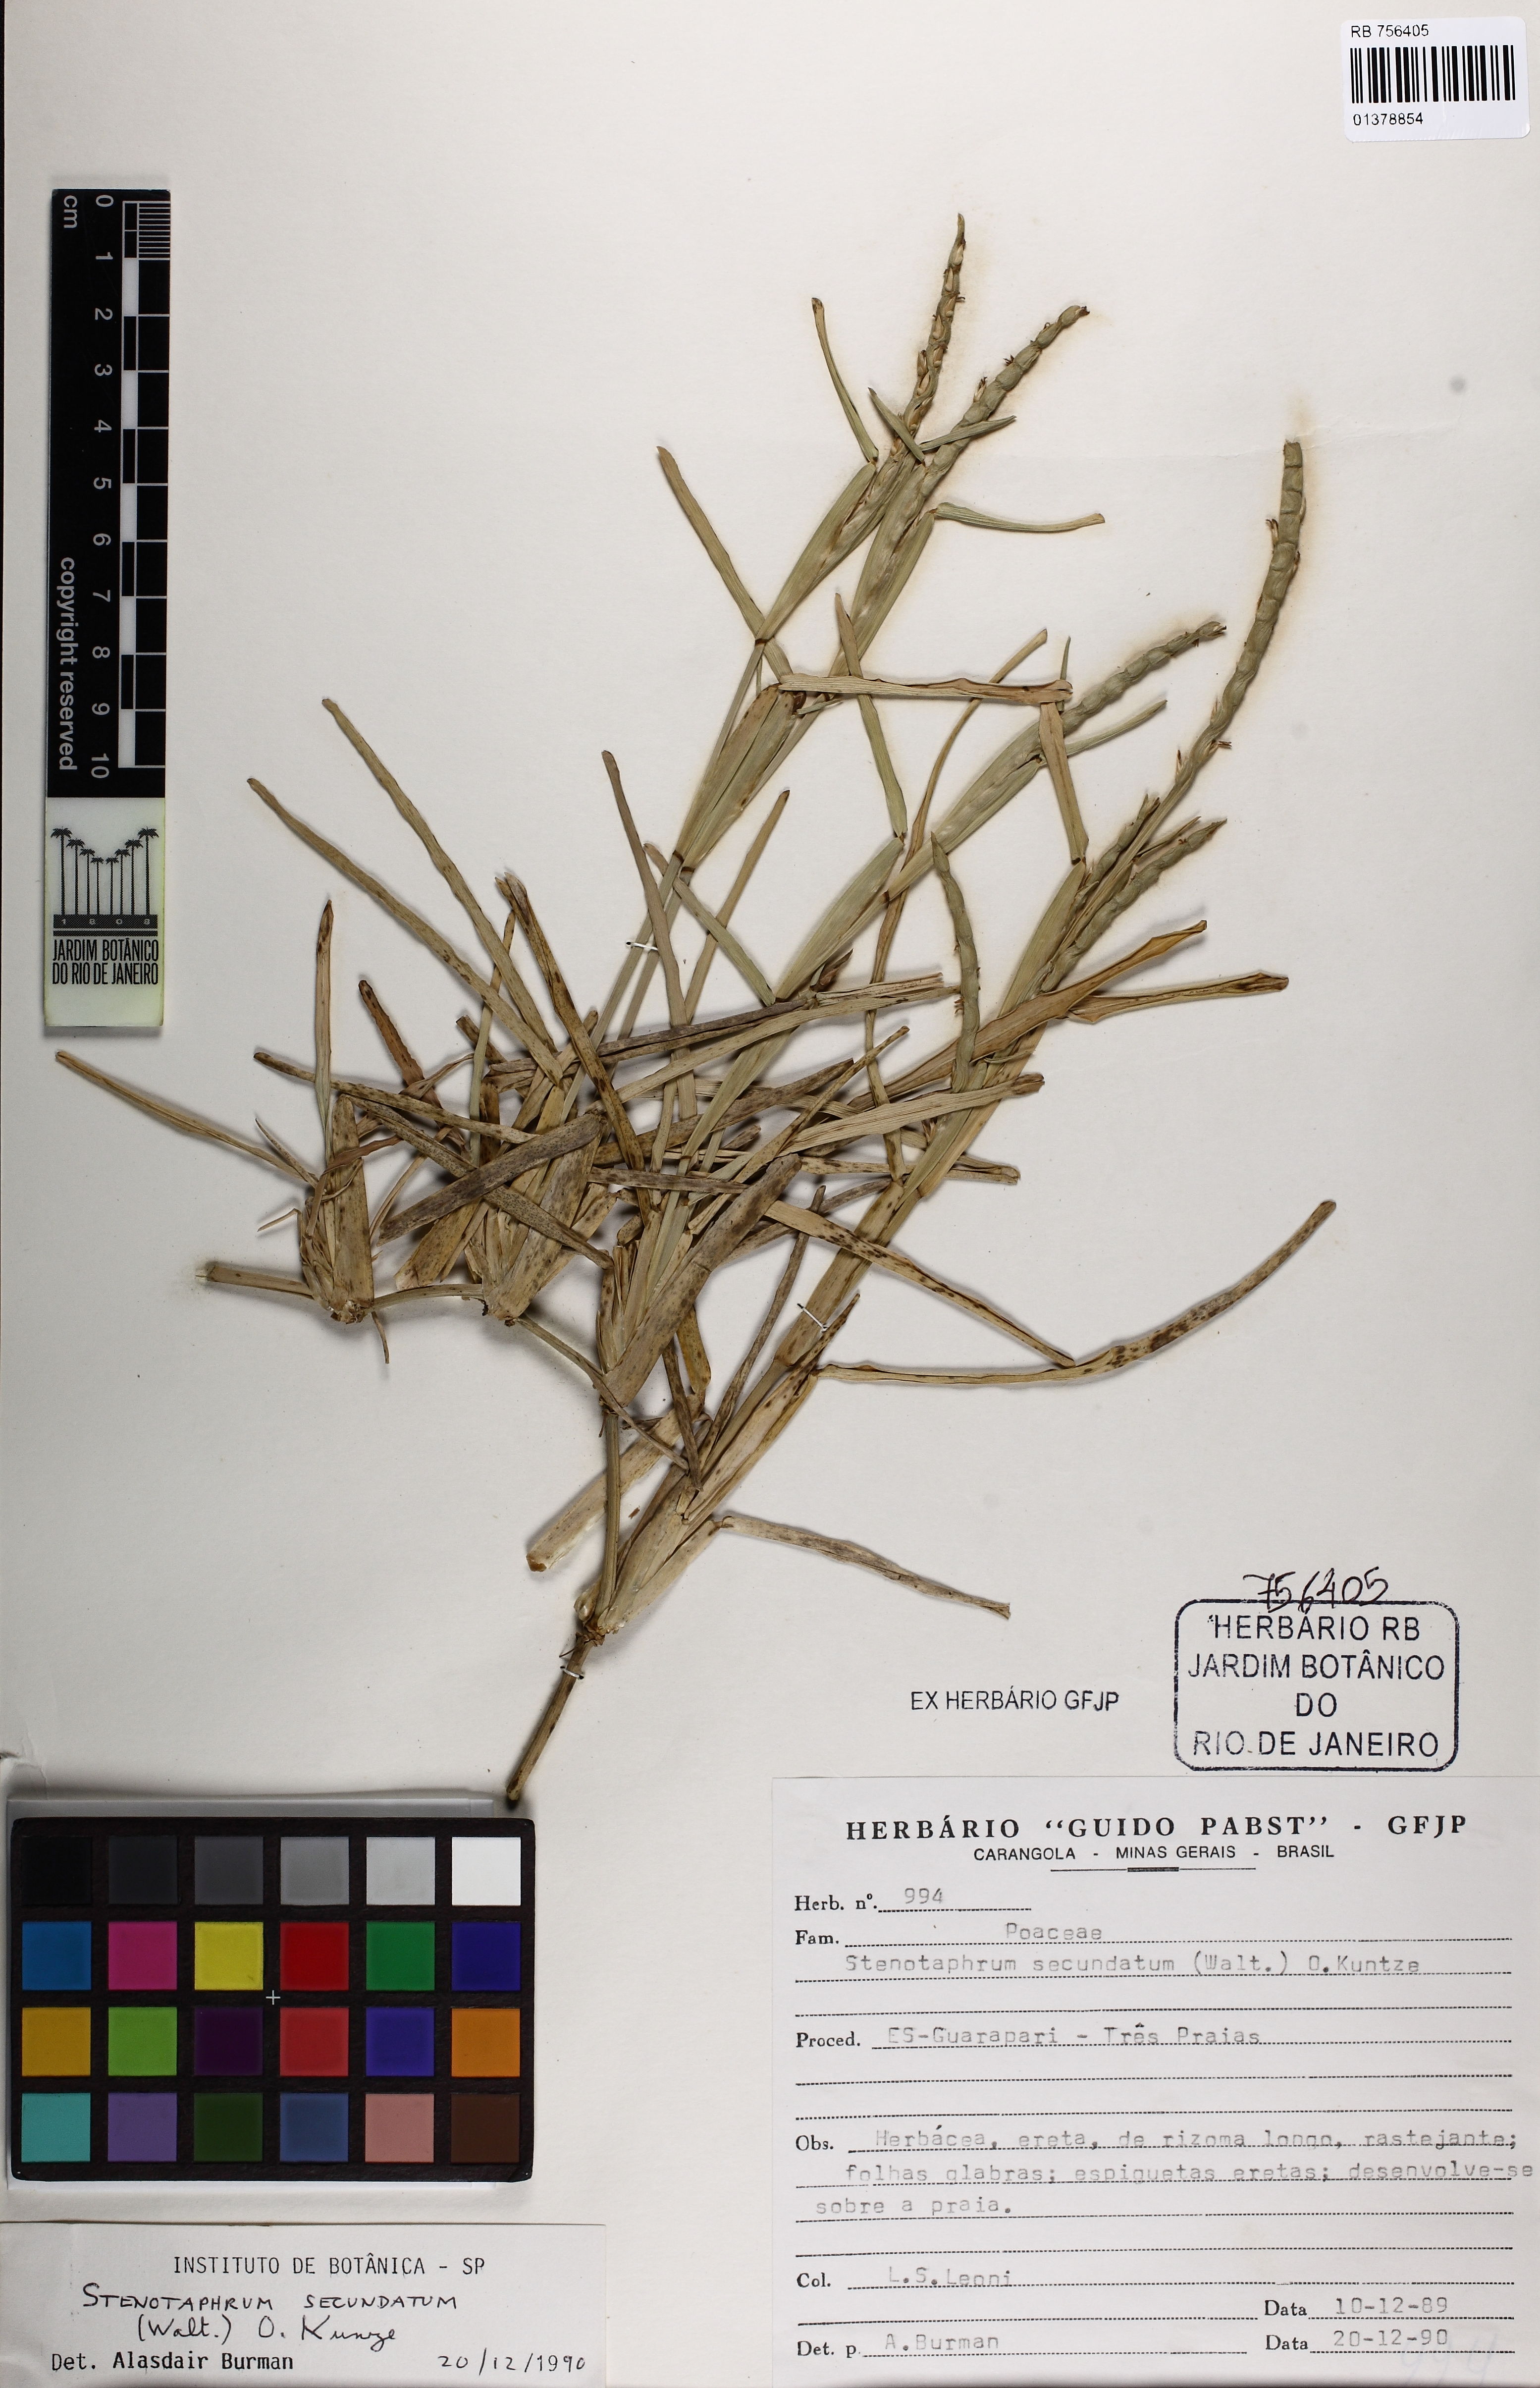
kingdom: Plantae
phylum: Tracheophyta
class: Liliopsida
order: Poales
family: Poaceae
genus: Stenotaphrum
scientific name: Stenotaphrum secundatum
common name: St. augustine grass
